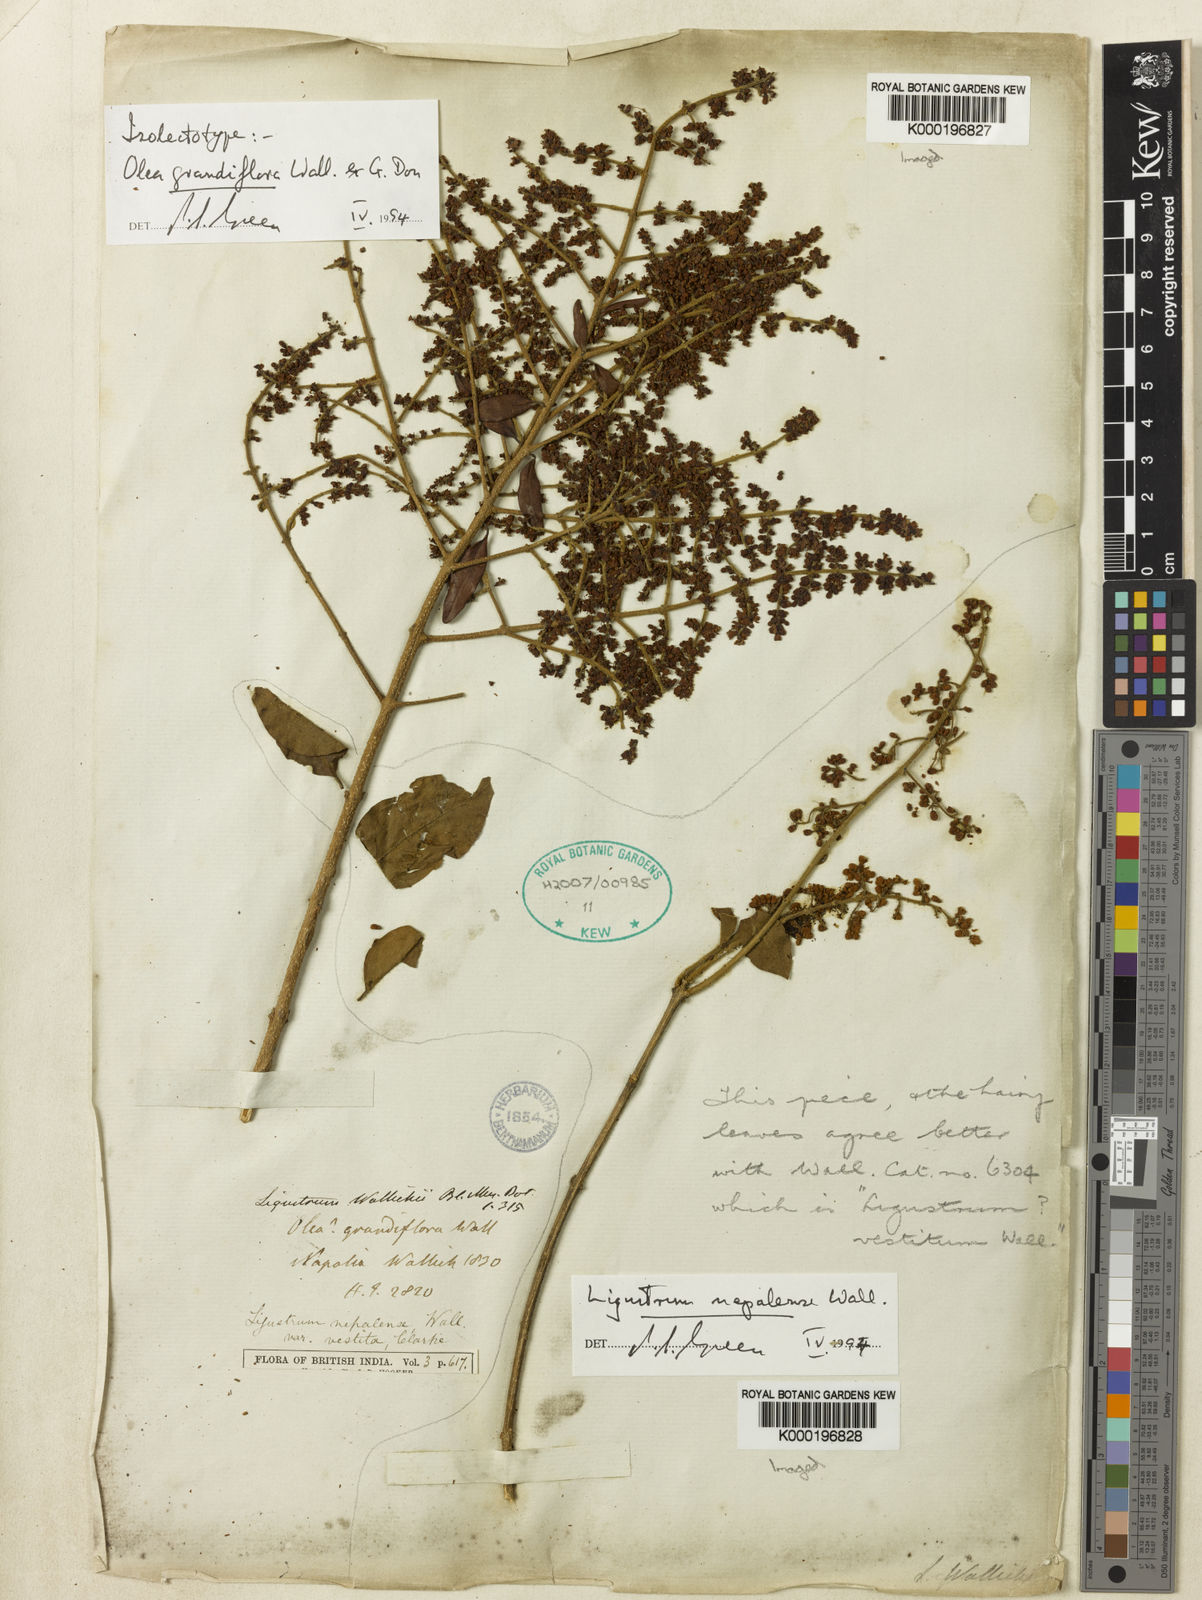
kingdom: Plantae
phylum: Tracheophyta
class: Magnoliopsida
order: Lamiales
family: Oleaceae
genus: Ligustrum
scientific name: Ligustrum nepalense
